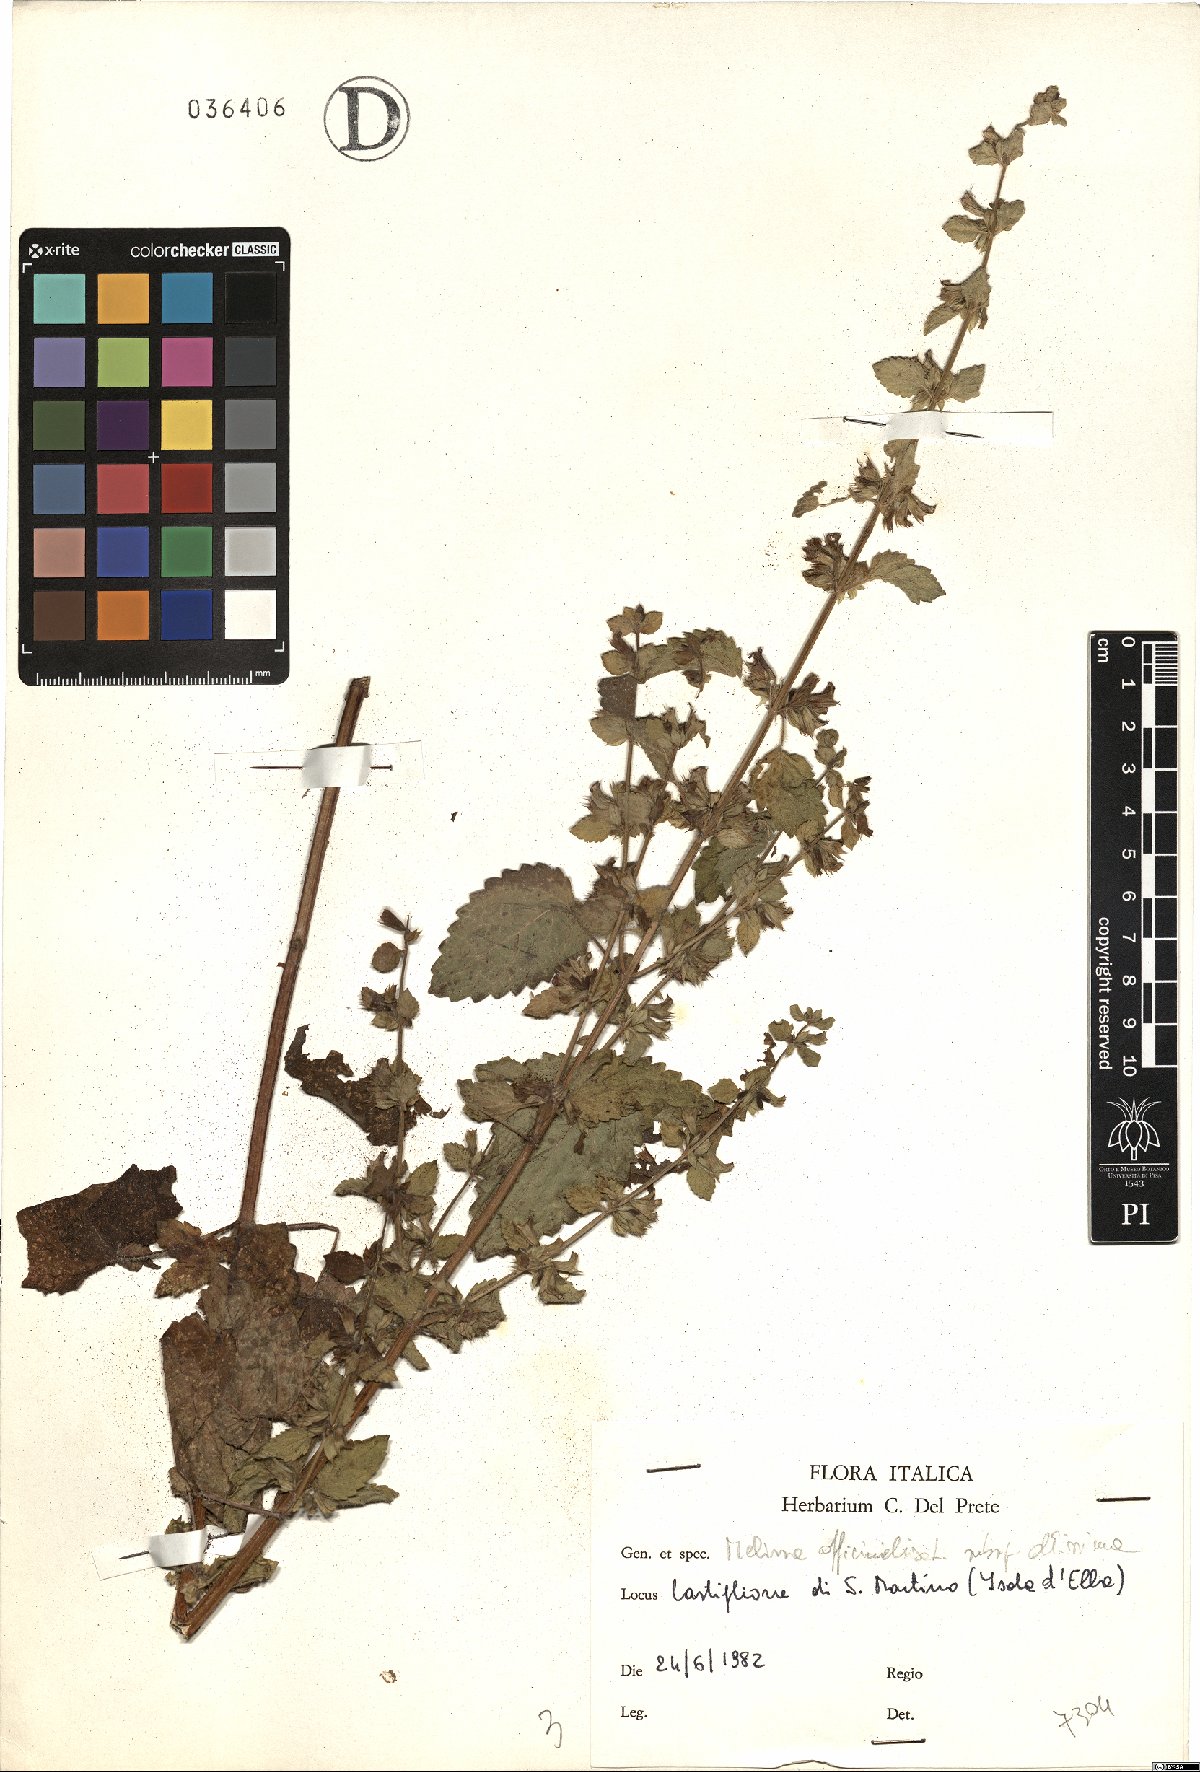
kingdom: Plantae
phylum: Tracheophyta
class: Magnoliopsida
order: Lamiales
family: Lamiaceae
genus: Melissa
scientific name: Melissa officinalis
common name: Balm
